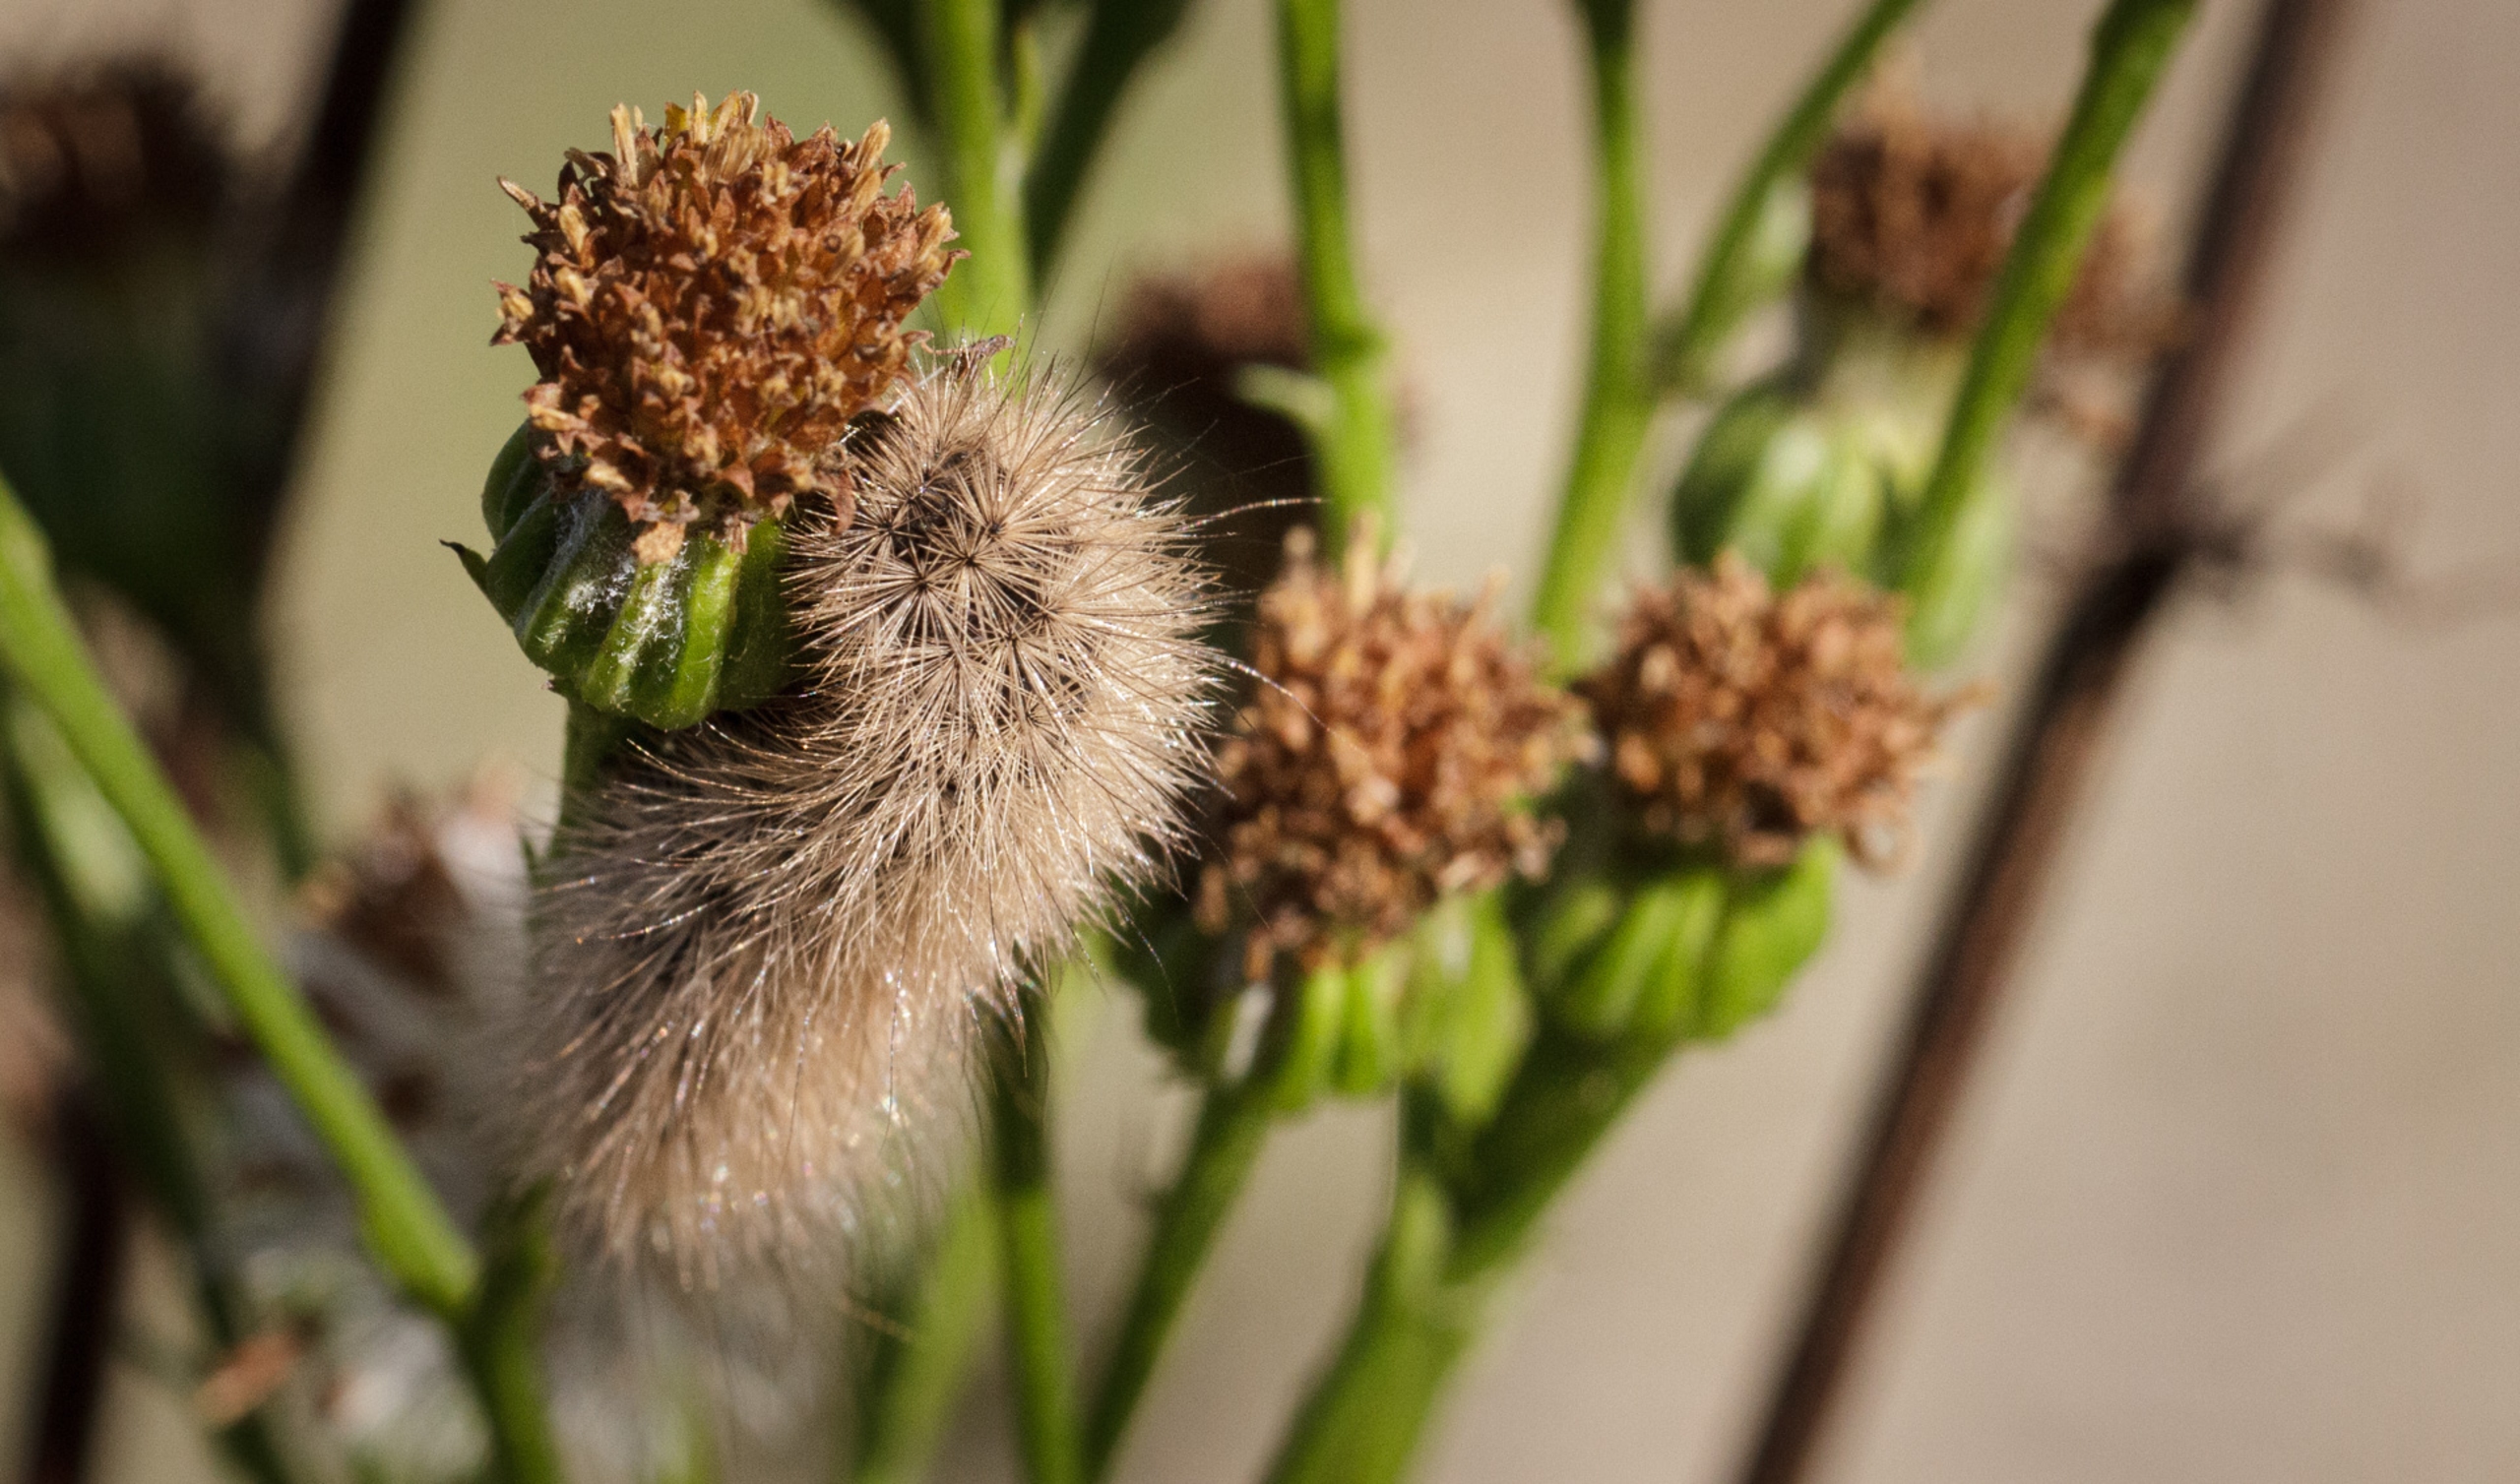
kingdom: Animalia
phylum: Arthropoda
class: Insecta
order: Lepidoptera
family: Erebidae
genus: Phragmatobia
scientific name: Phragmatobia fuliginosa
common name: Kanelbjørn
